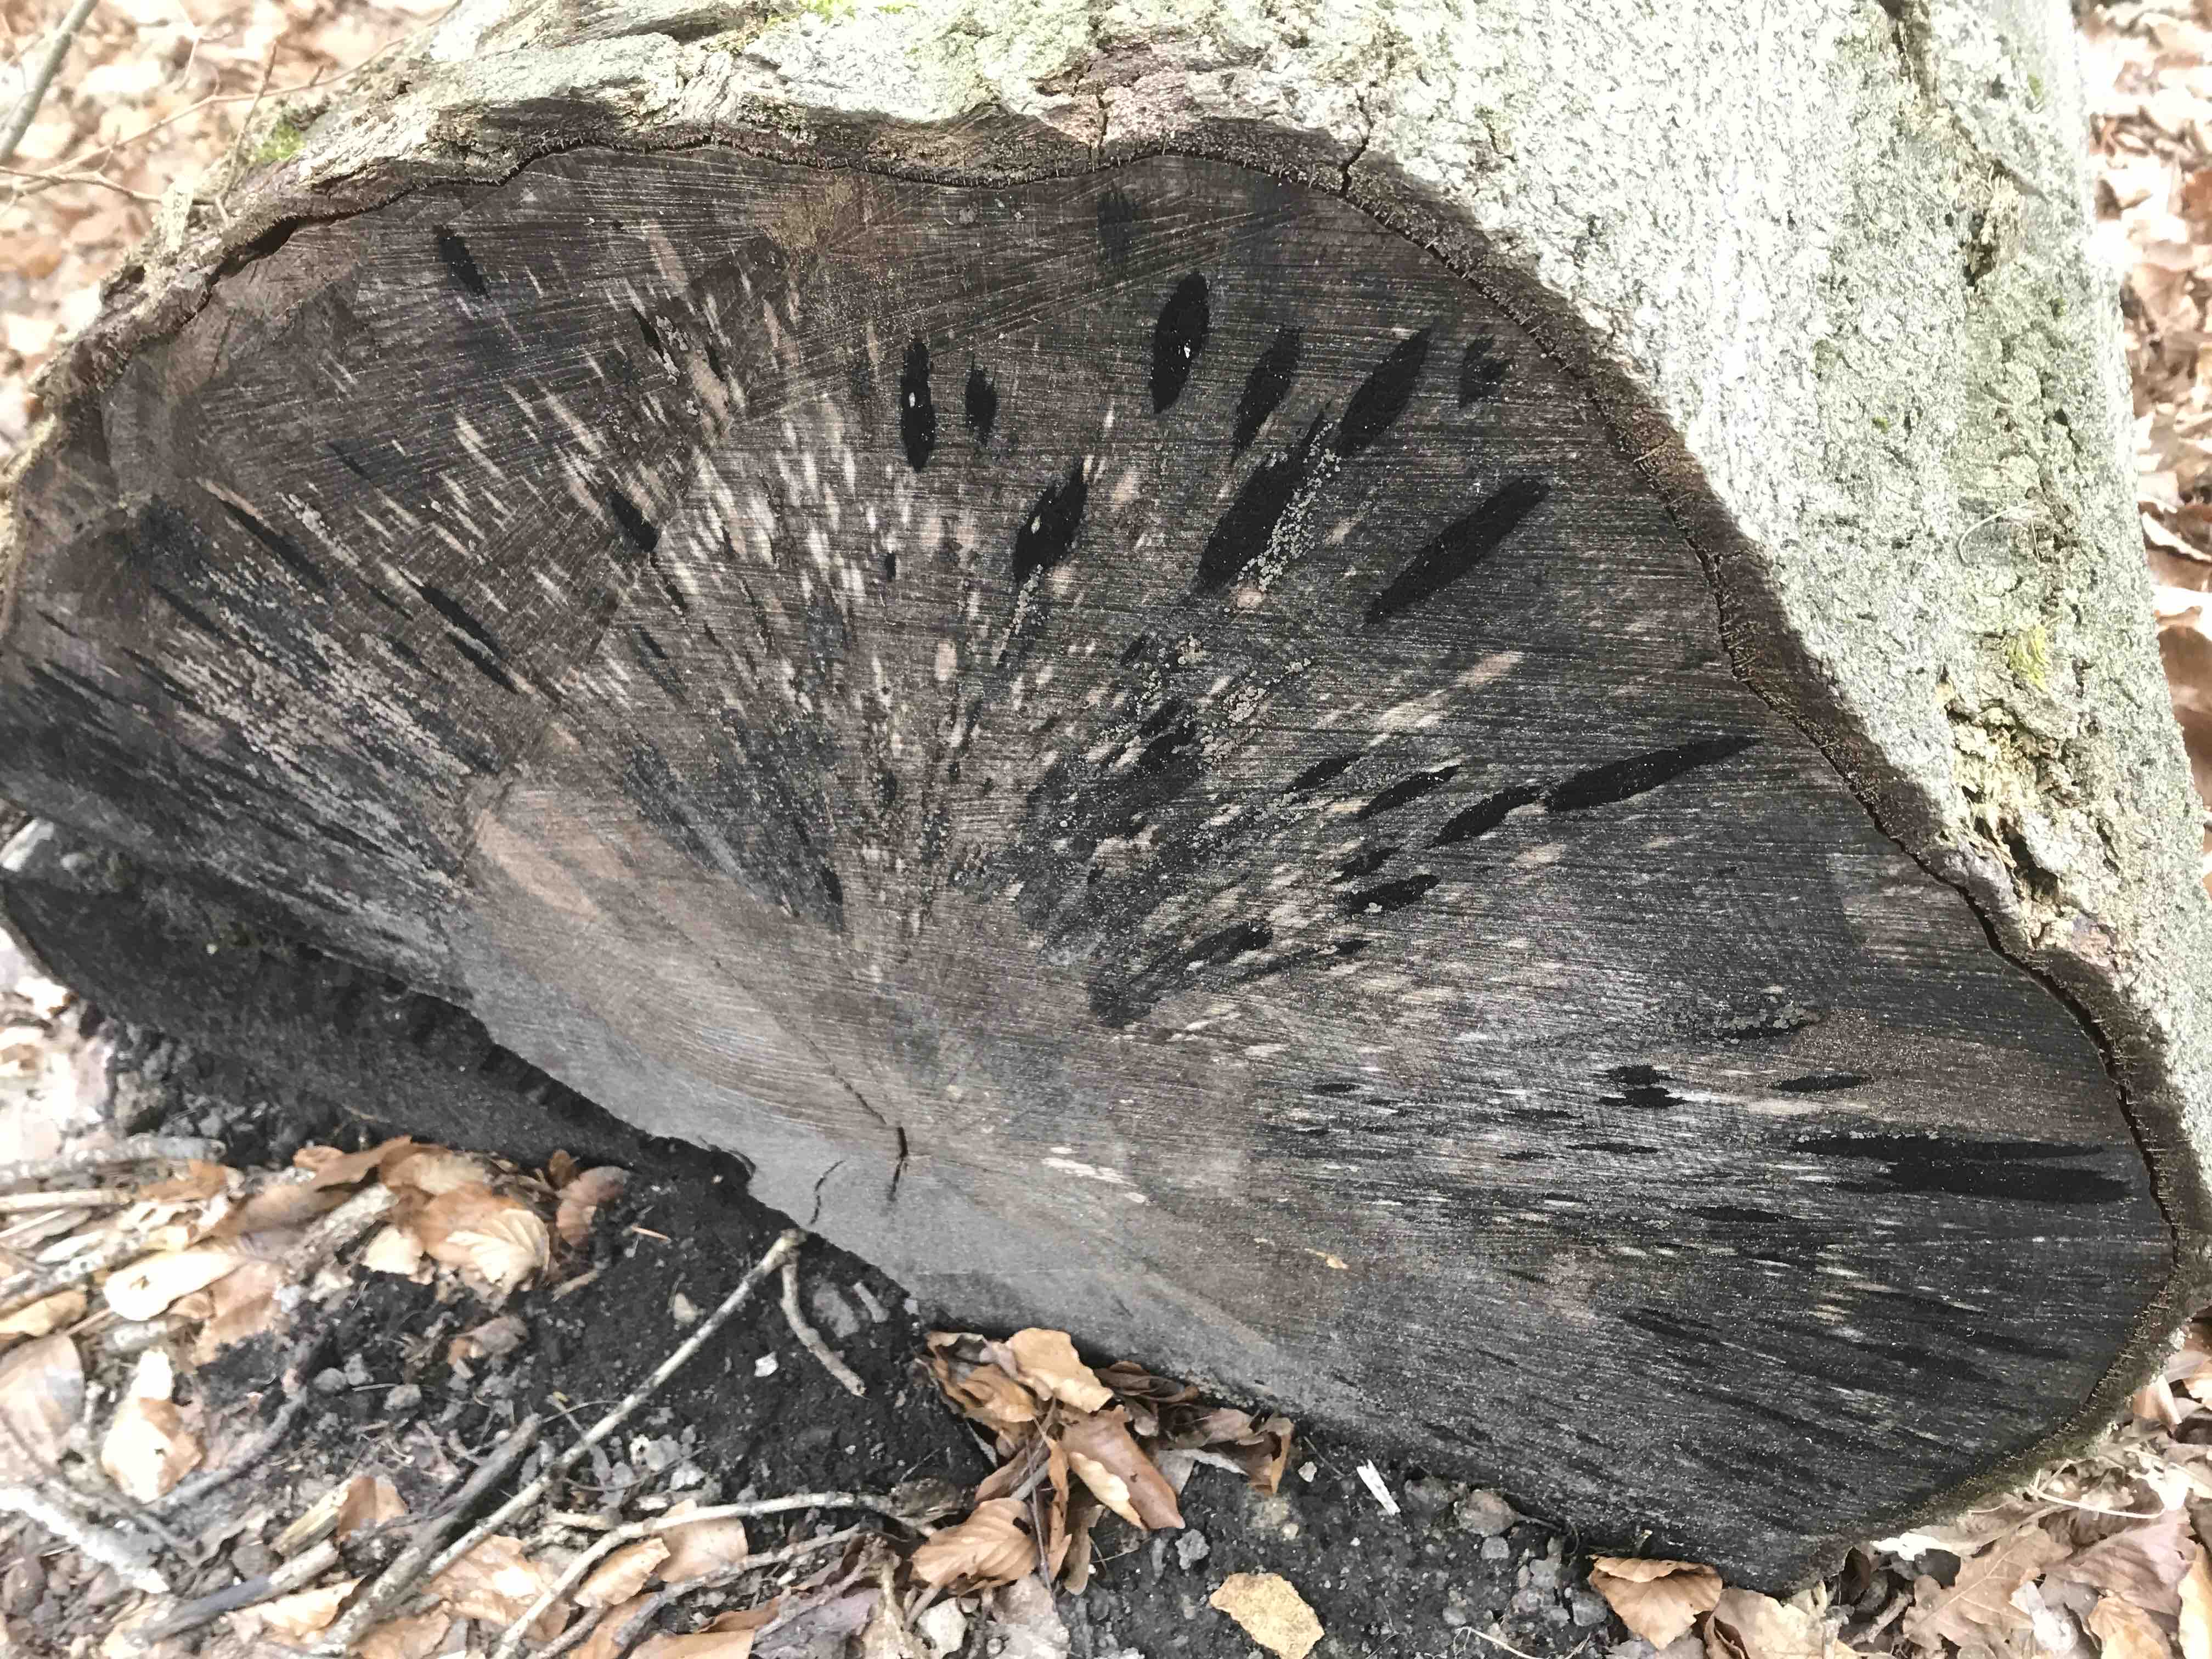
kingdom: Fungi
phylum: Ascomycota
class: Leotiomycetes
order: Helotiales
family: Helotiaceae
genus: Bispora
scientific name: Bispora pallescens
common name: måtte-snitskive
